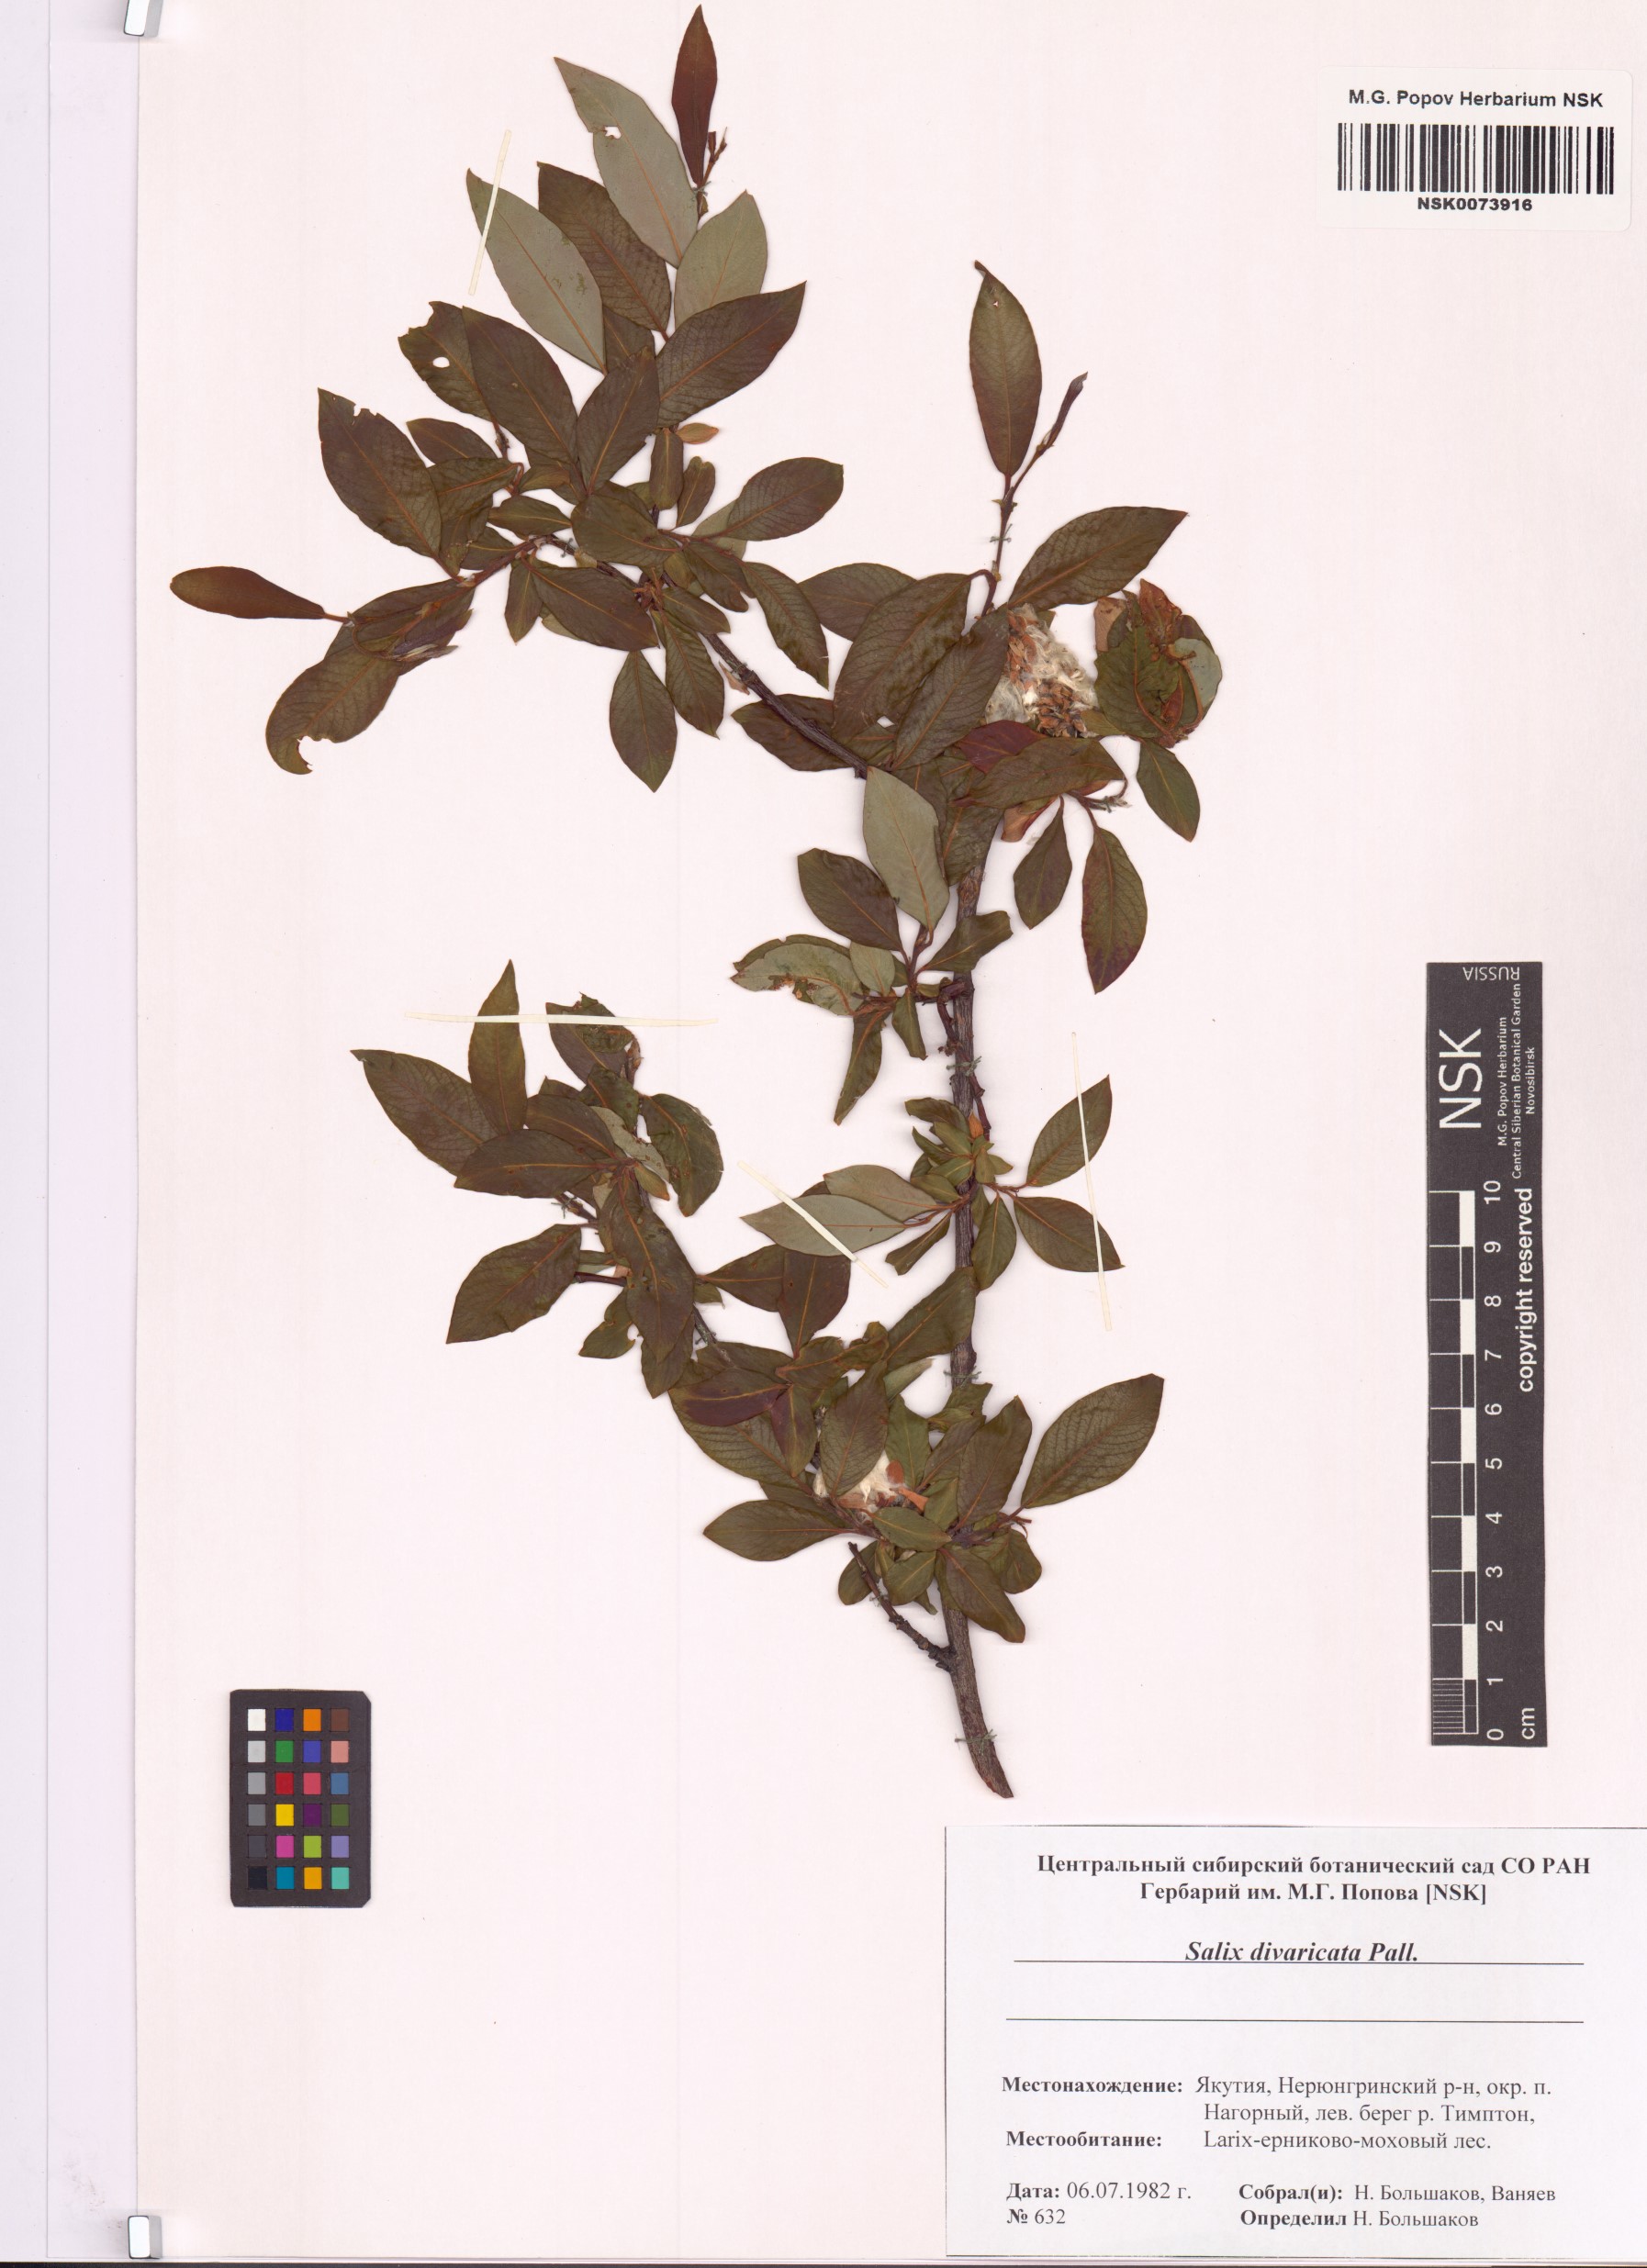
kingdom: Plantae
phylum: Tracheophyta
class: Magnoliopsida
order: Malpighiales
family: Salicaceae
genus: Salix
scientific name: Salix divaricata
